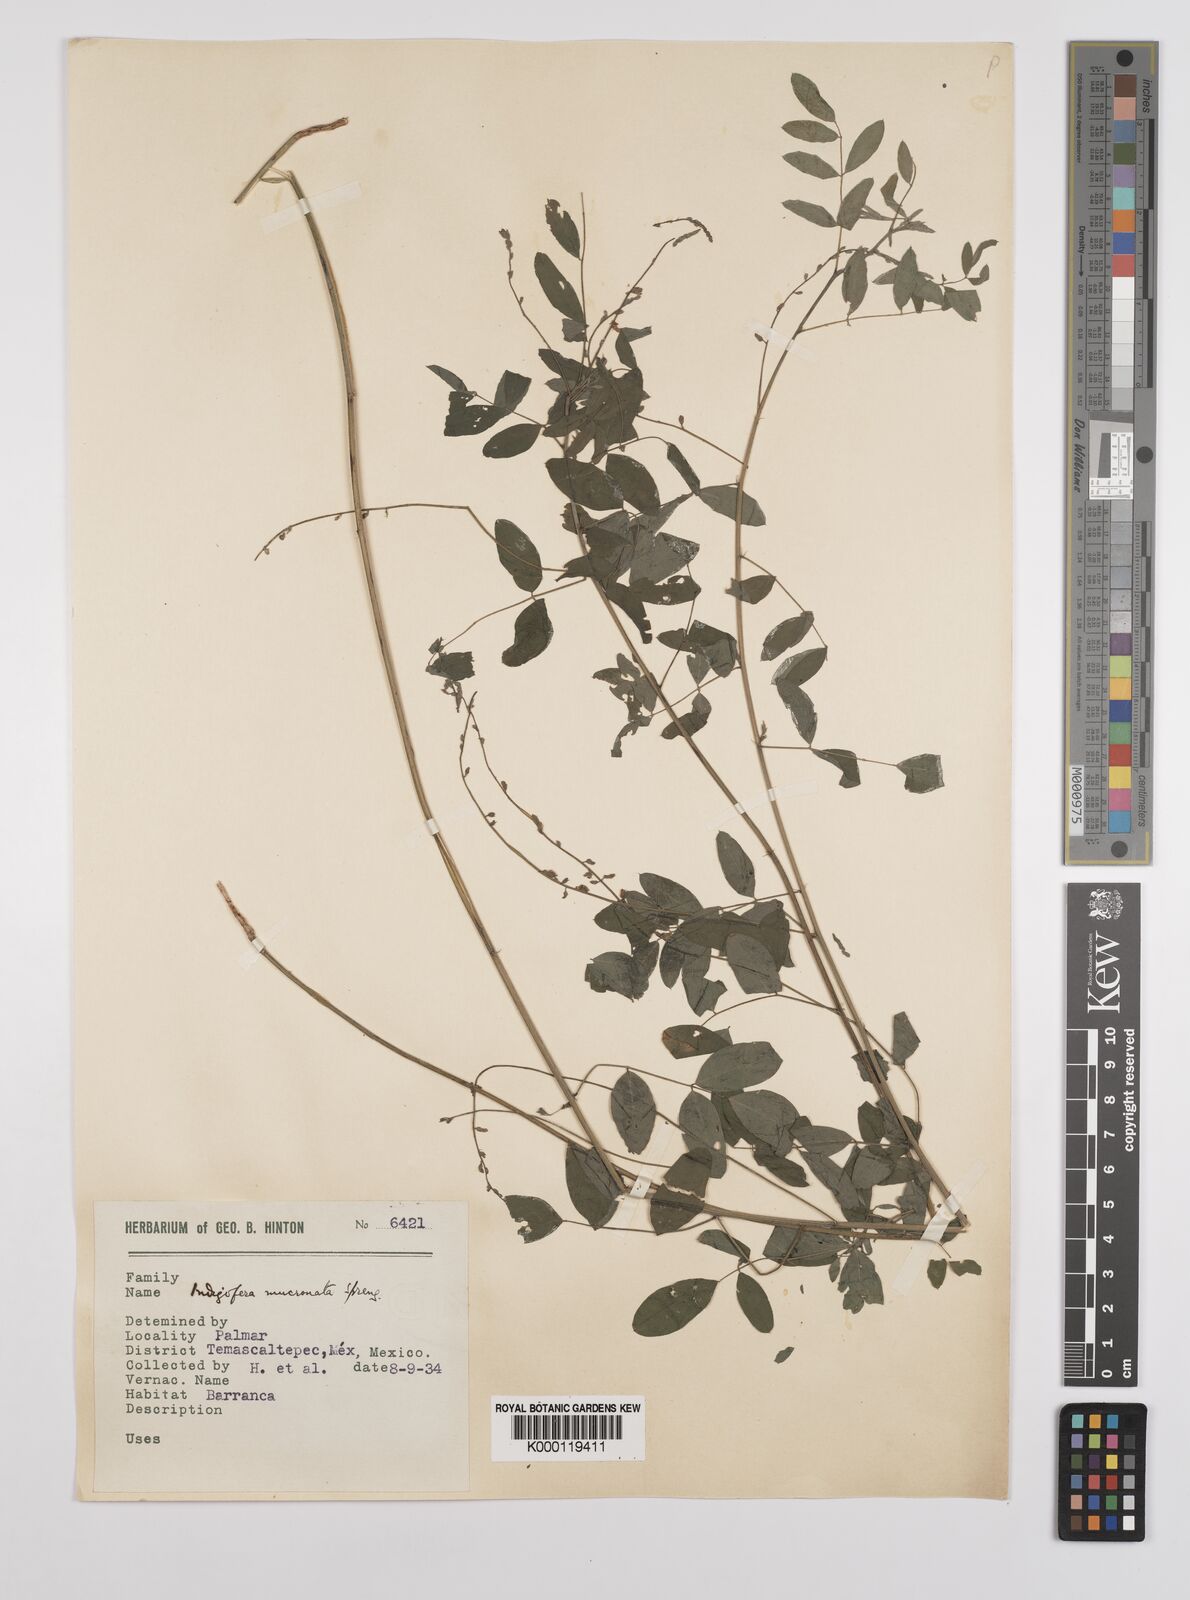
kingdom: Plantae
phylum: Tracheophyta
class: Magnoliopsida
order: Fabales
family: Fabaceae
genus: Indigofera
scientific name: Indigofera lespedezioides
